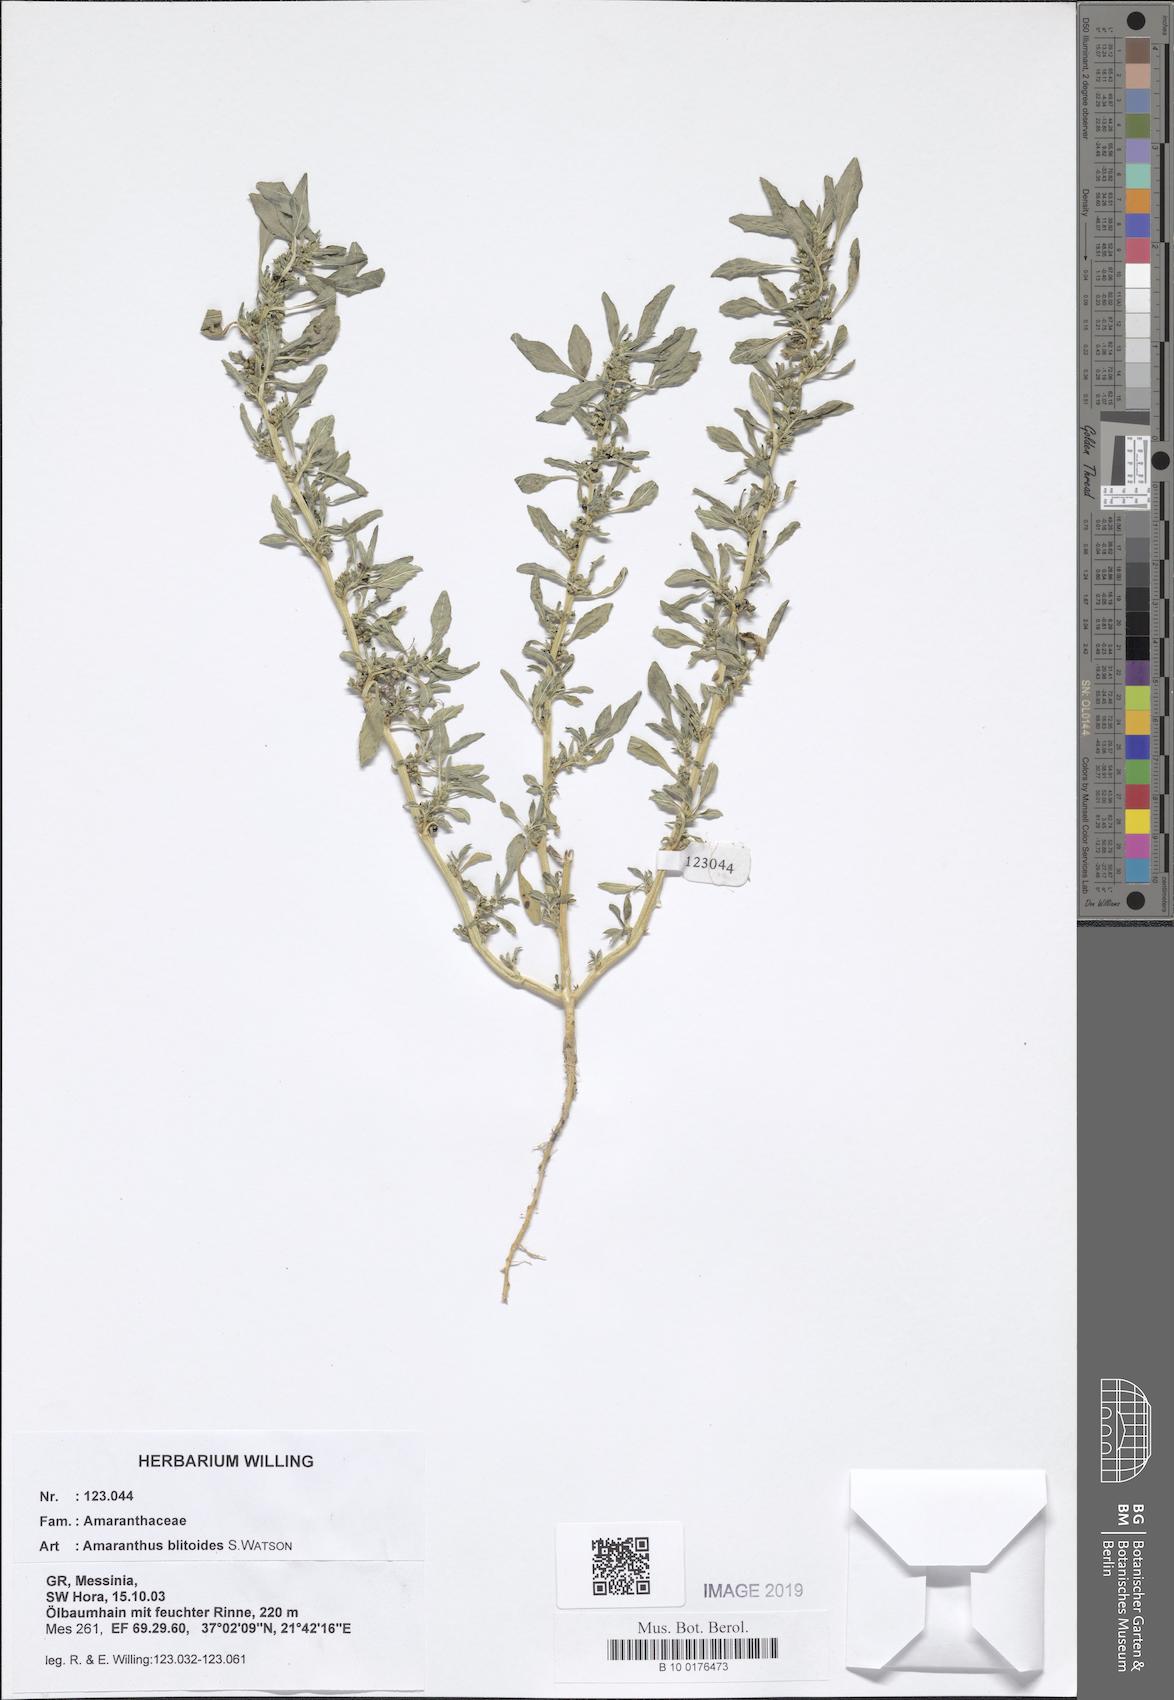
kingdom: Plantae
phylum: Tracheophyta
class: Magnoliopsida
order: Caryophyllales
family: Amaranthaceae
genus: Amaranthus
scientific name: Amaranthus blitoides
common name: Prostrate pigweed
